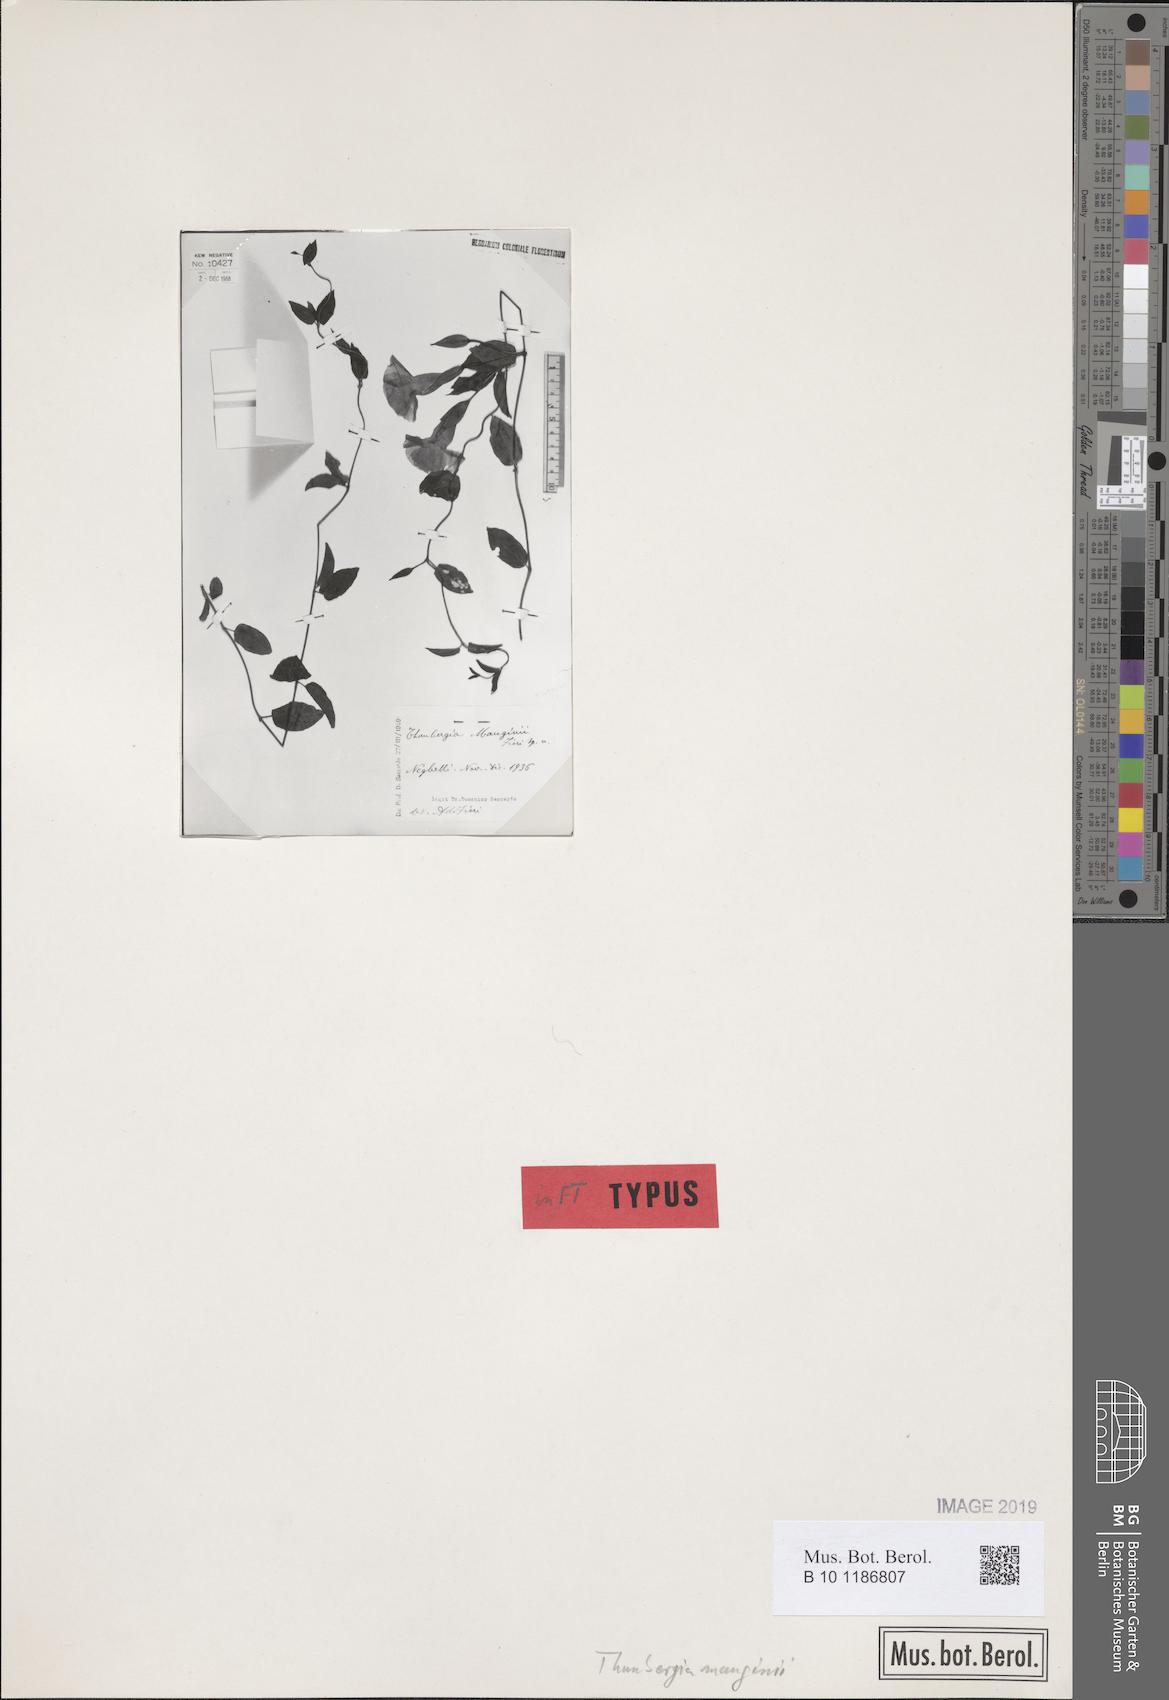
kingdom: Plantae
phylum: Tracheophyta
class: Magnoliopsida
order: Lamiales
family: Acanthaceae
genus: Thunbergia
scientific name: Thunbergia mauginii
